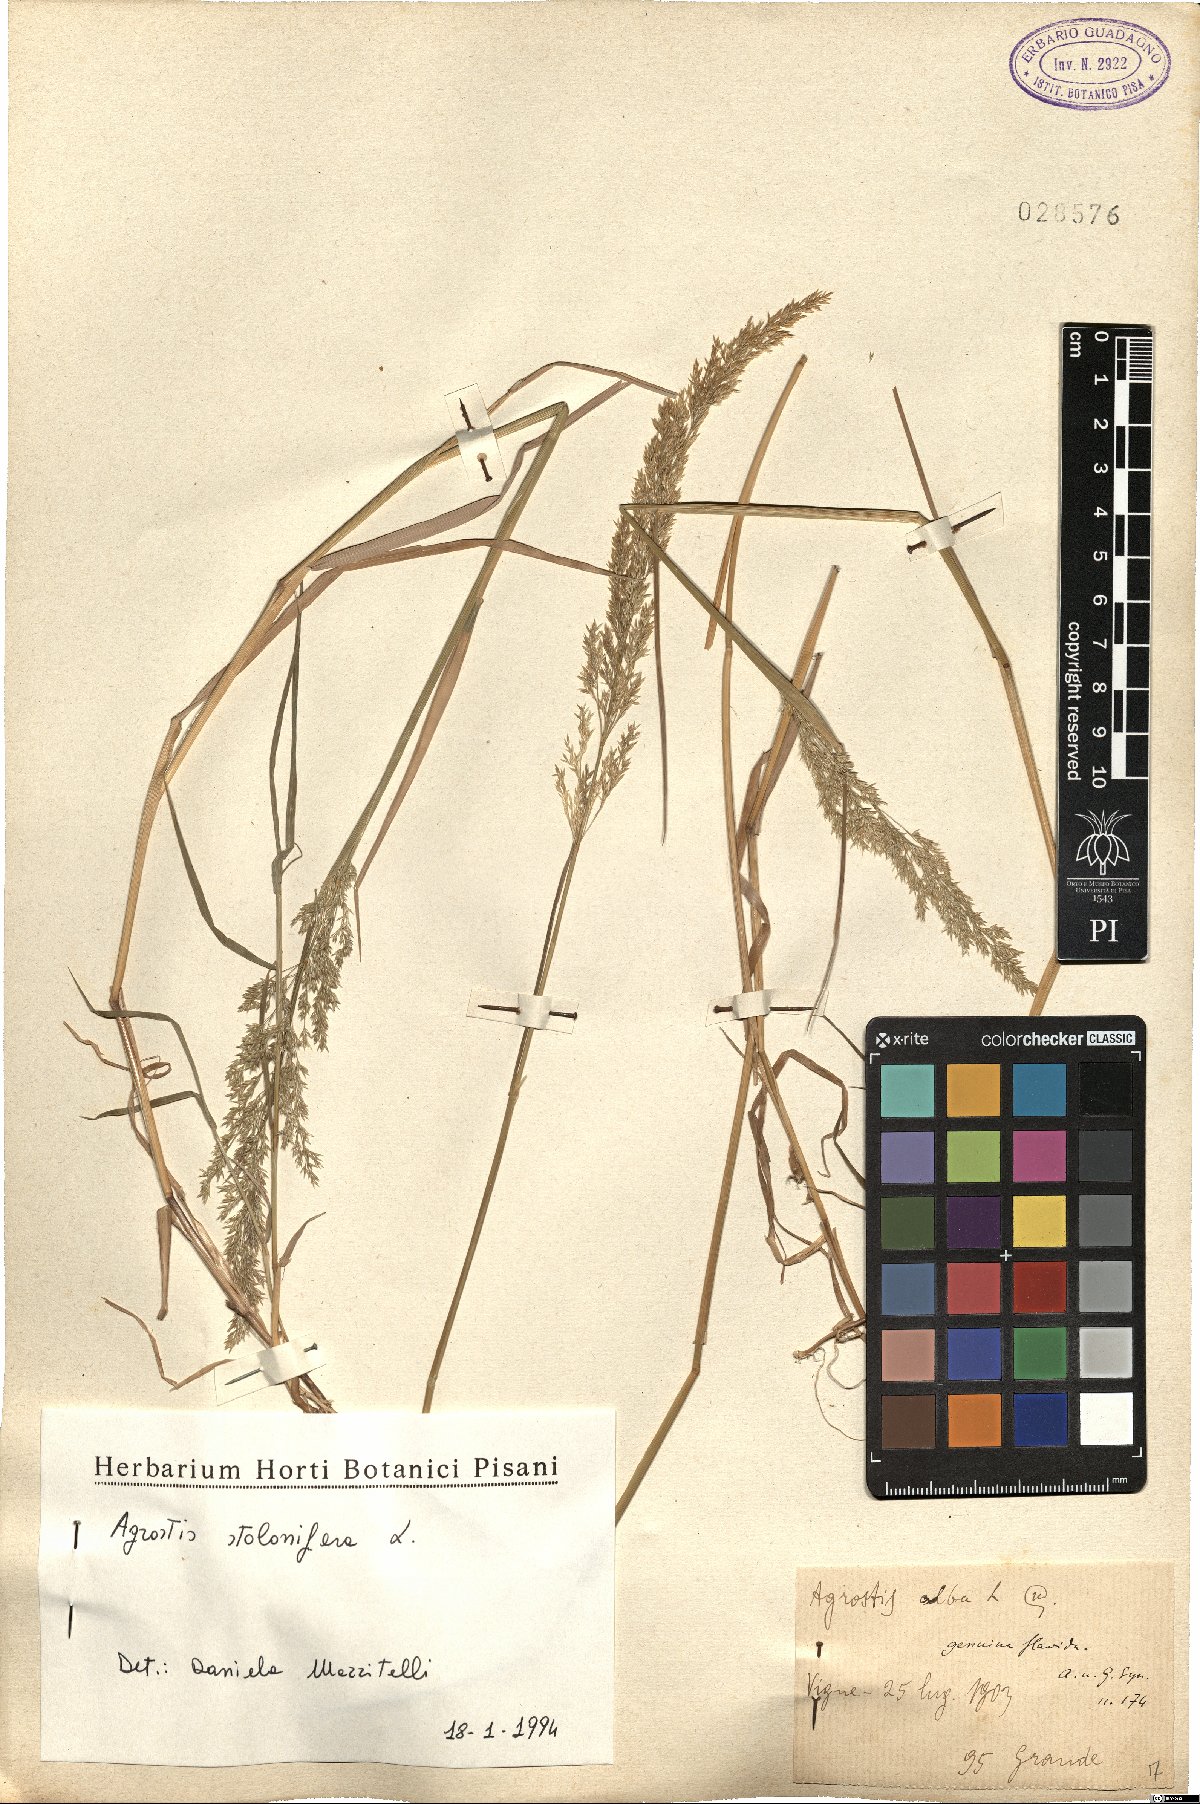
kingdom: Plantae
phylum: Tracheophyta
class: Liliopsida
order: Poales
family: Poaceae
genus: Agrostis
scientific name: Agrostis stolonifera
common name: Creeping bentgrass
